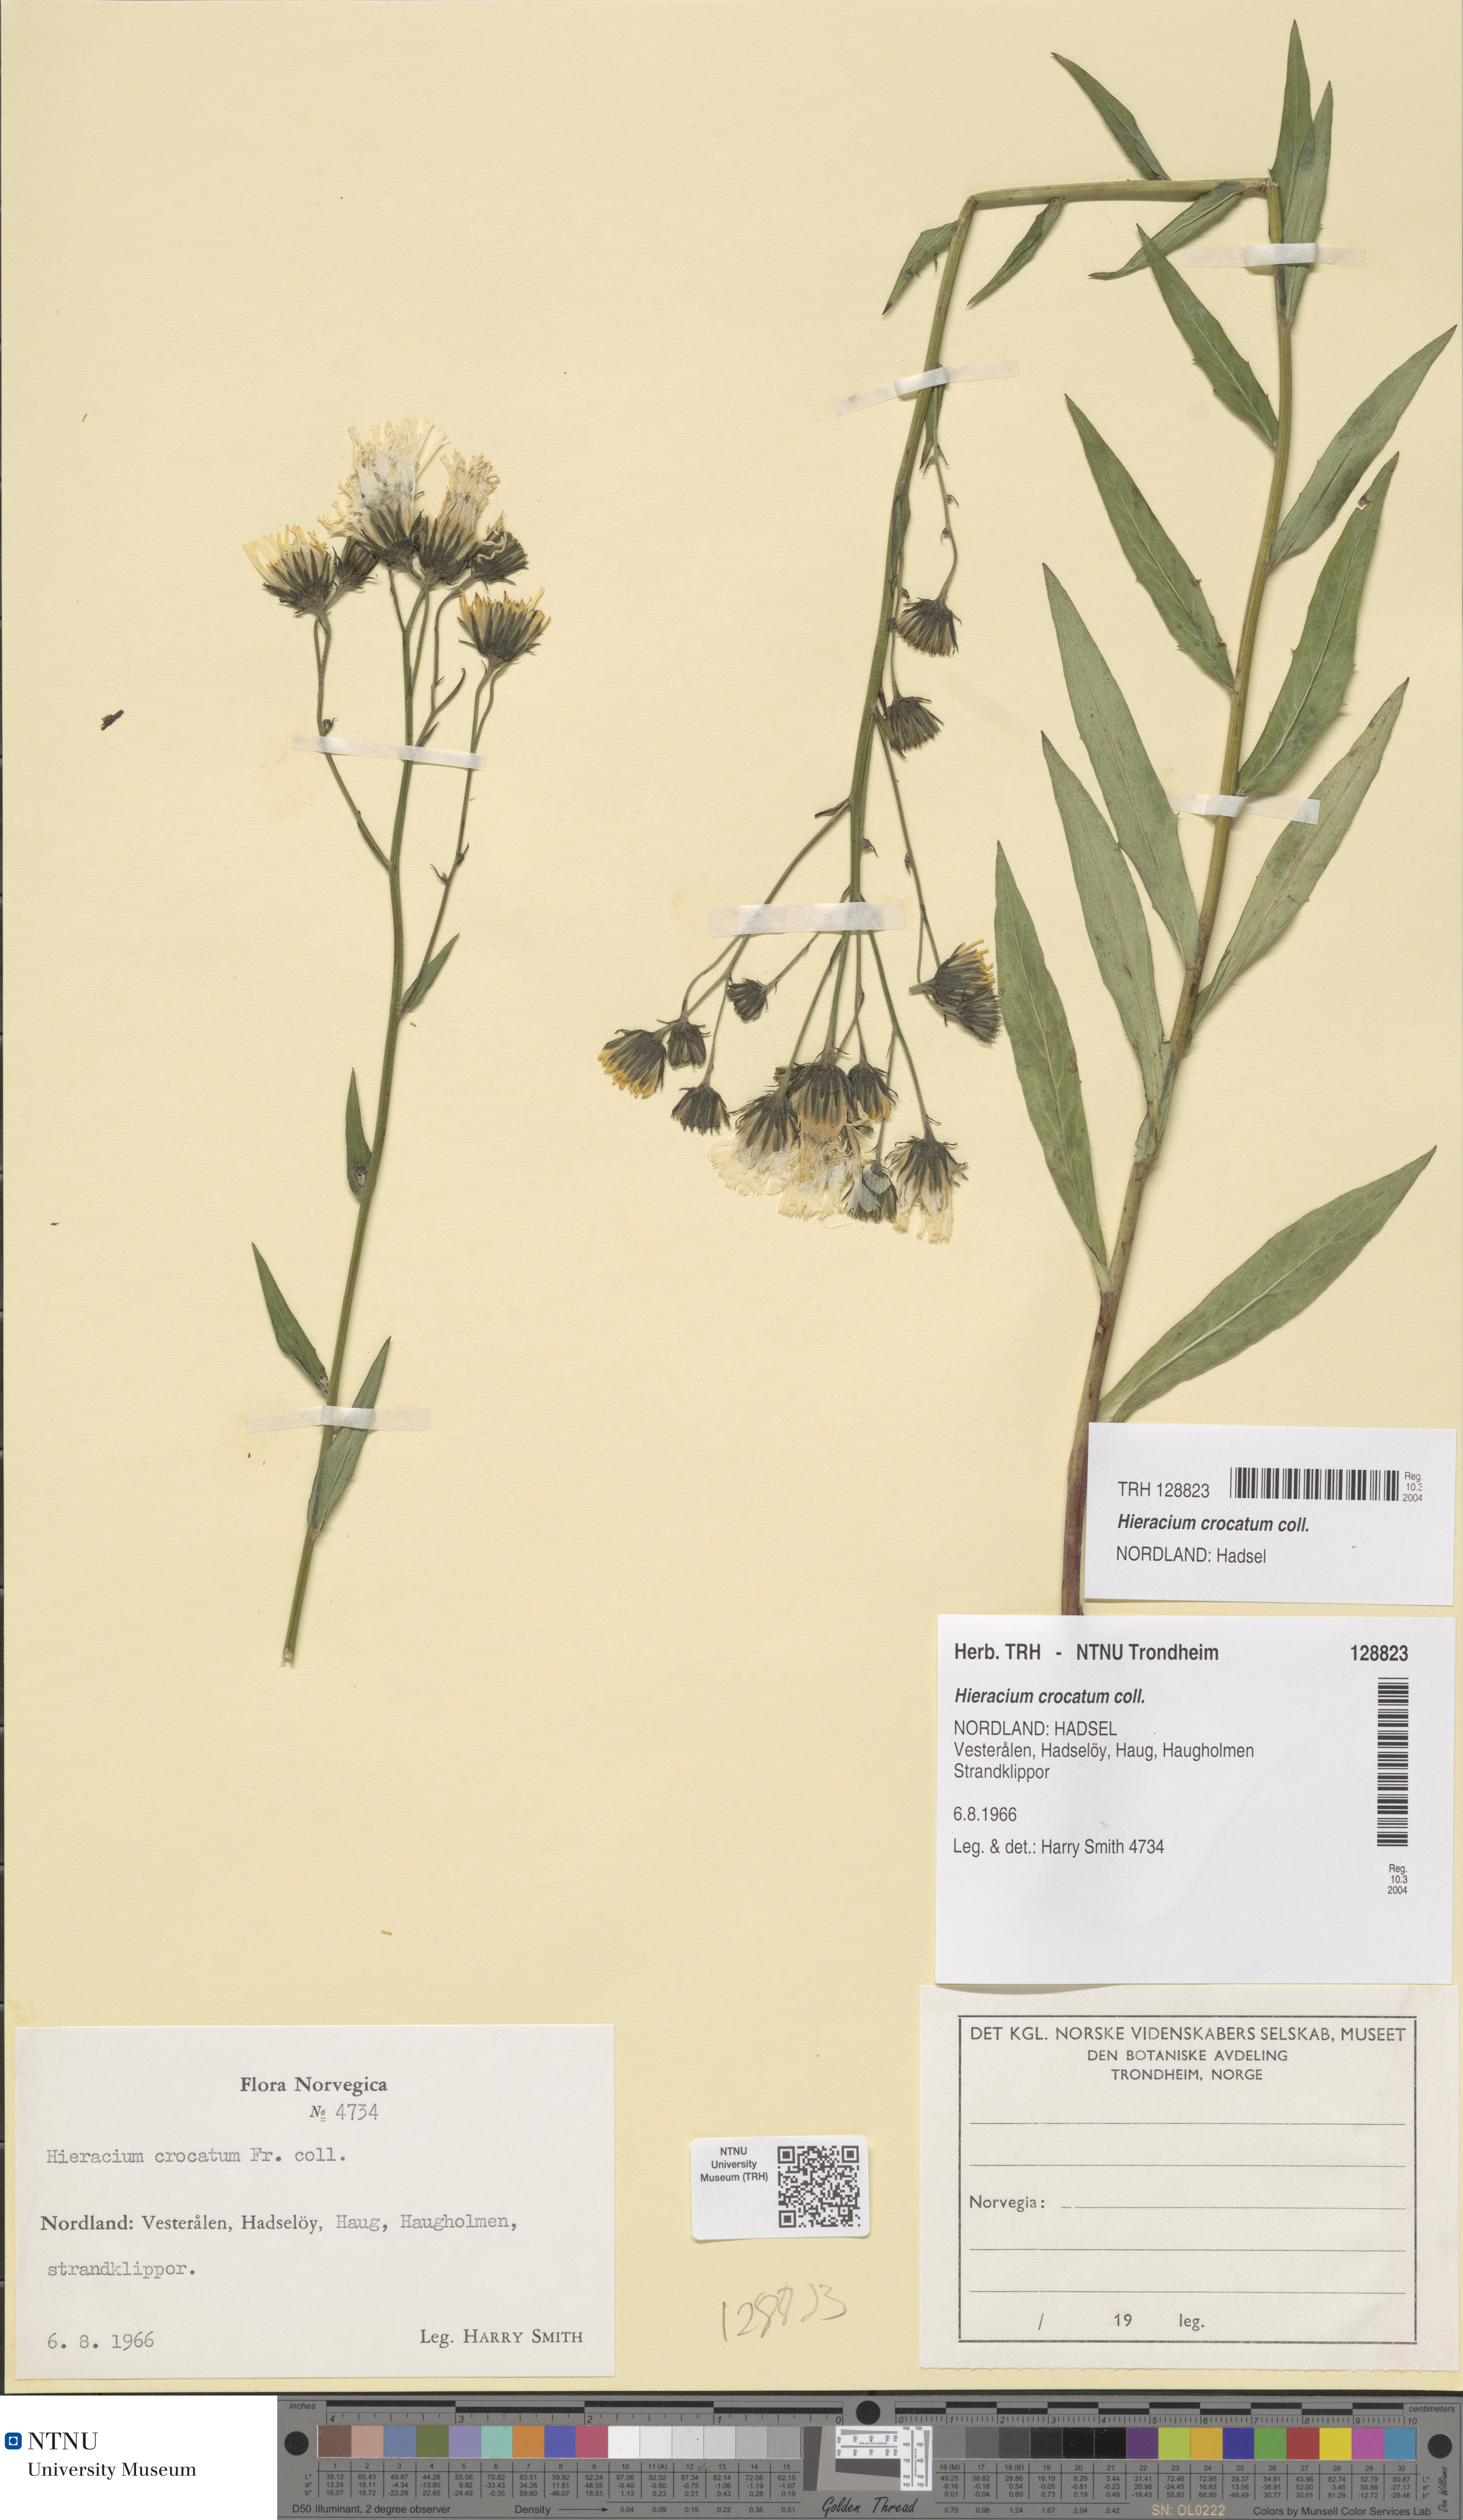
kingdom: Plantae
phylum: Tracheophyta
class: Magnoliopsida
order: Asterales
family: Asteraceae
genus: Hieracium
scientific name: Hieracium crocatum
